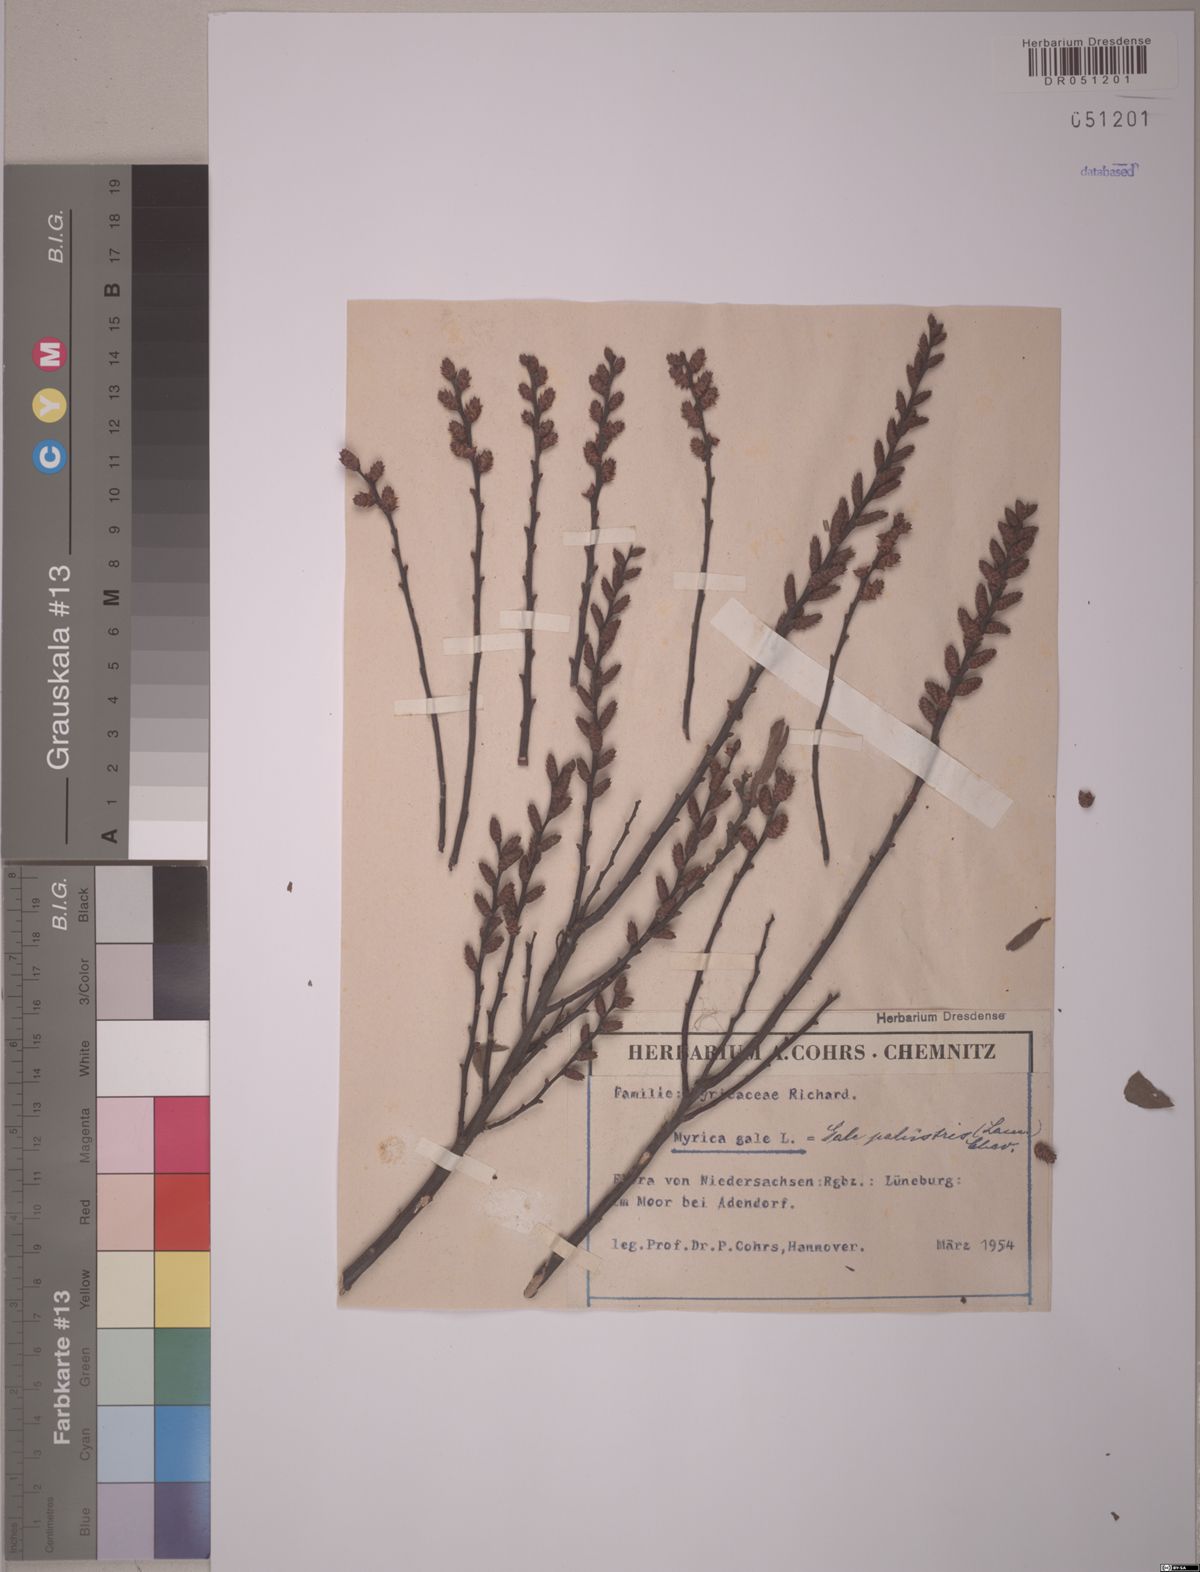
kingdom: Plantae
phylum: Tracheophyta
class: Magnoliopsida
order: Fagales
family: Myricaceae
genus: Myrica
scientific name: Myrica gale
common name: Sweet gale
